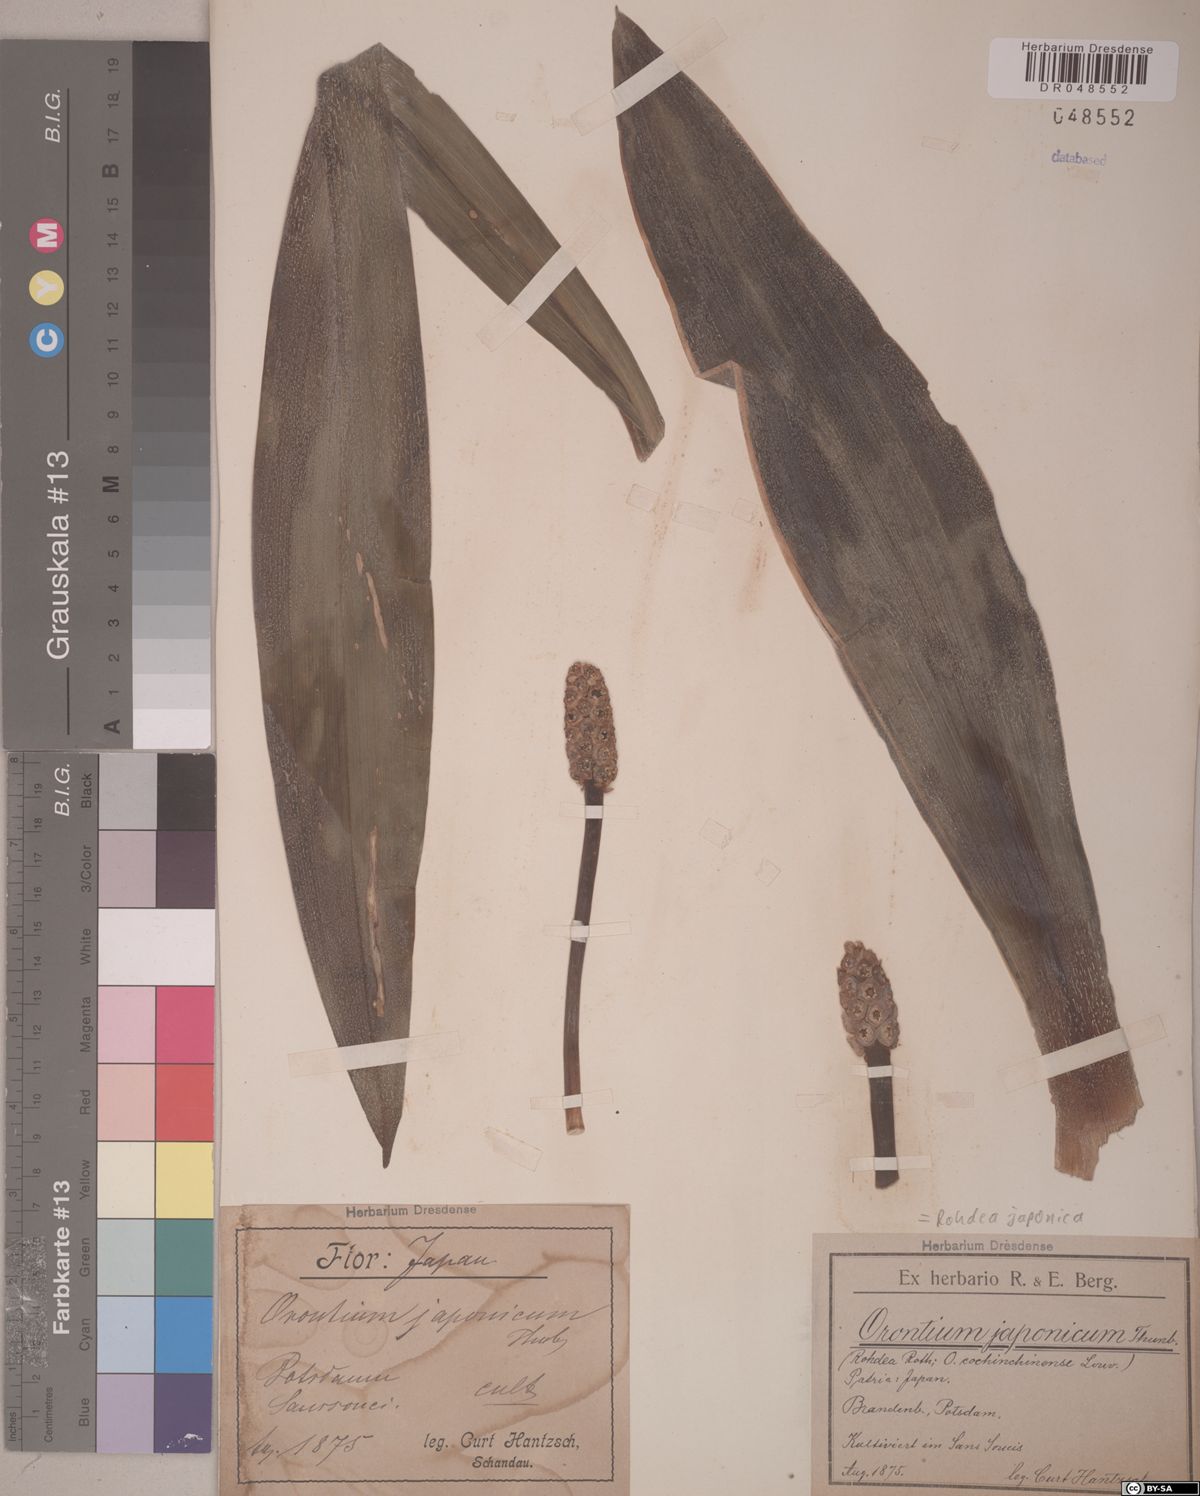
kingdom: Plantae
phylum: Tracheophyta
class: Liliopsida
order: Asparagales
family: Asparagaceae
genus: Rohdea
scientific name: Rohdea japonica
